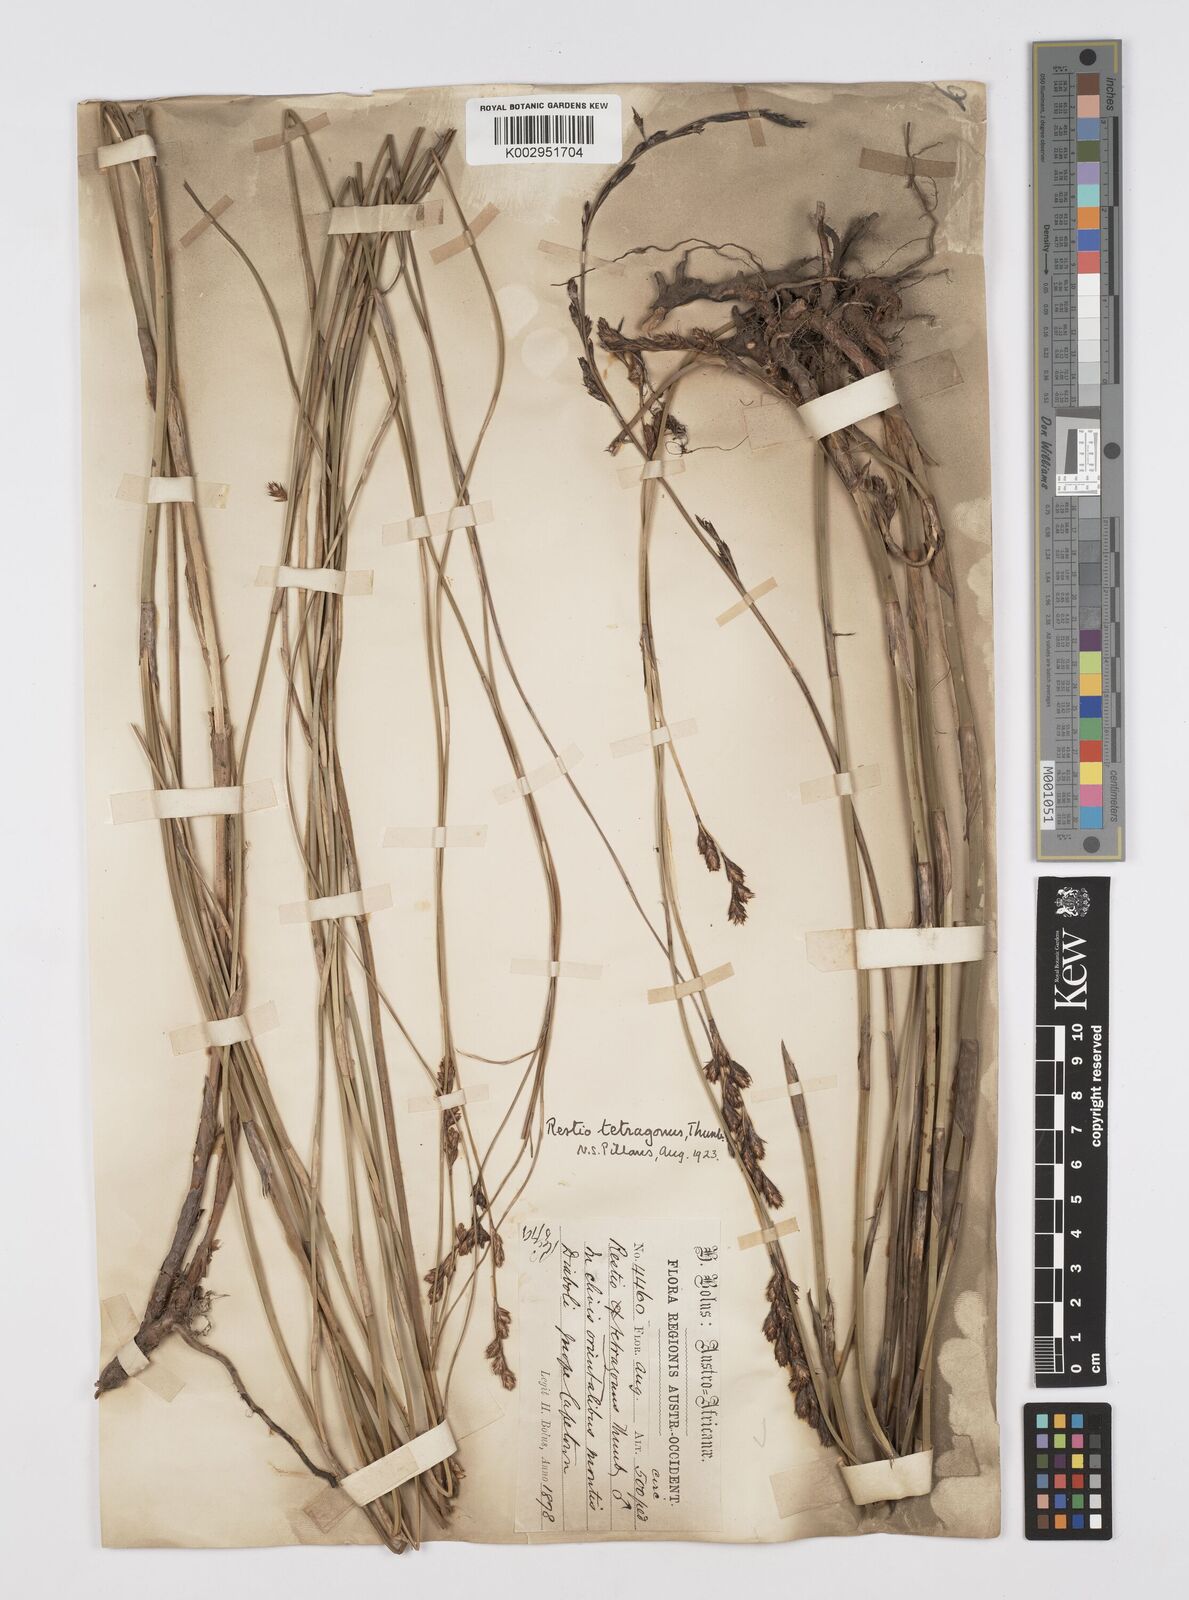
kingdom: Plantae
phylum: Tracheophyta
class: Liliopsida
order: Poales
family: Restionaceae
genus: Restio
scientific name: Restio tetragonus
